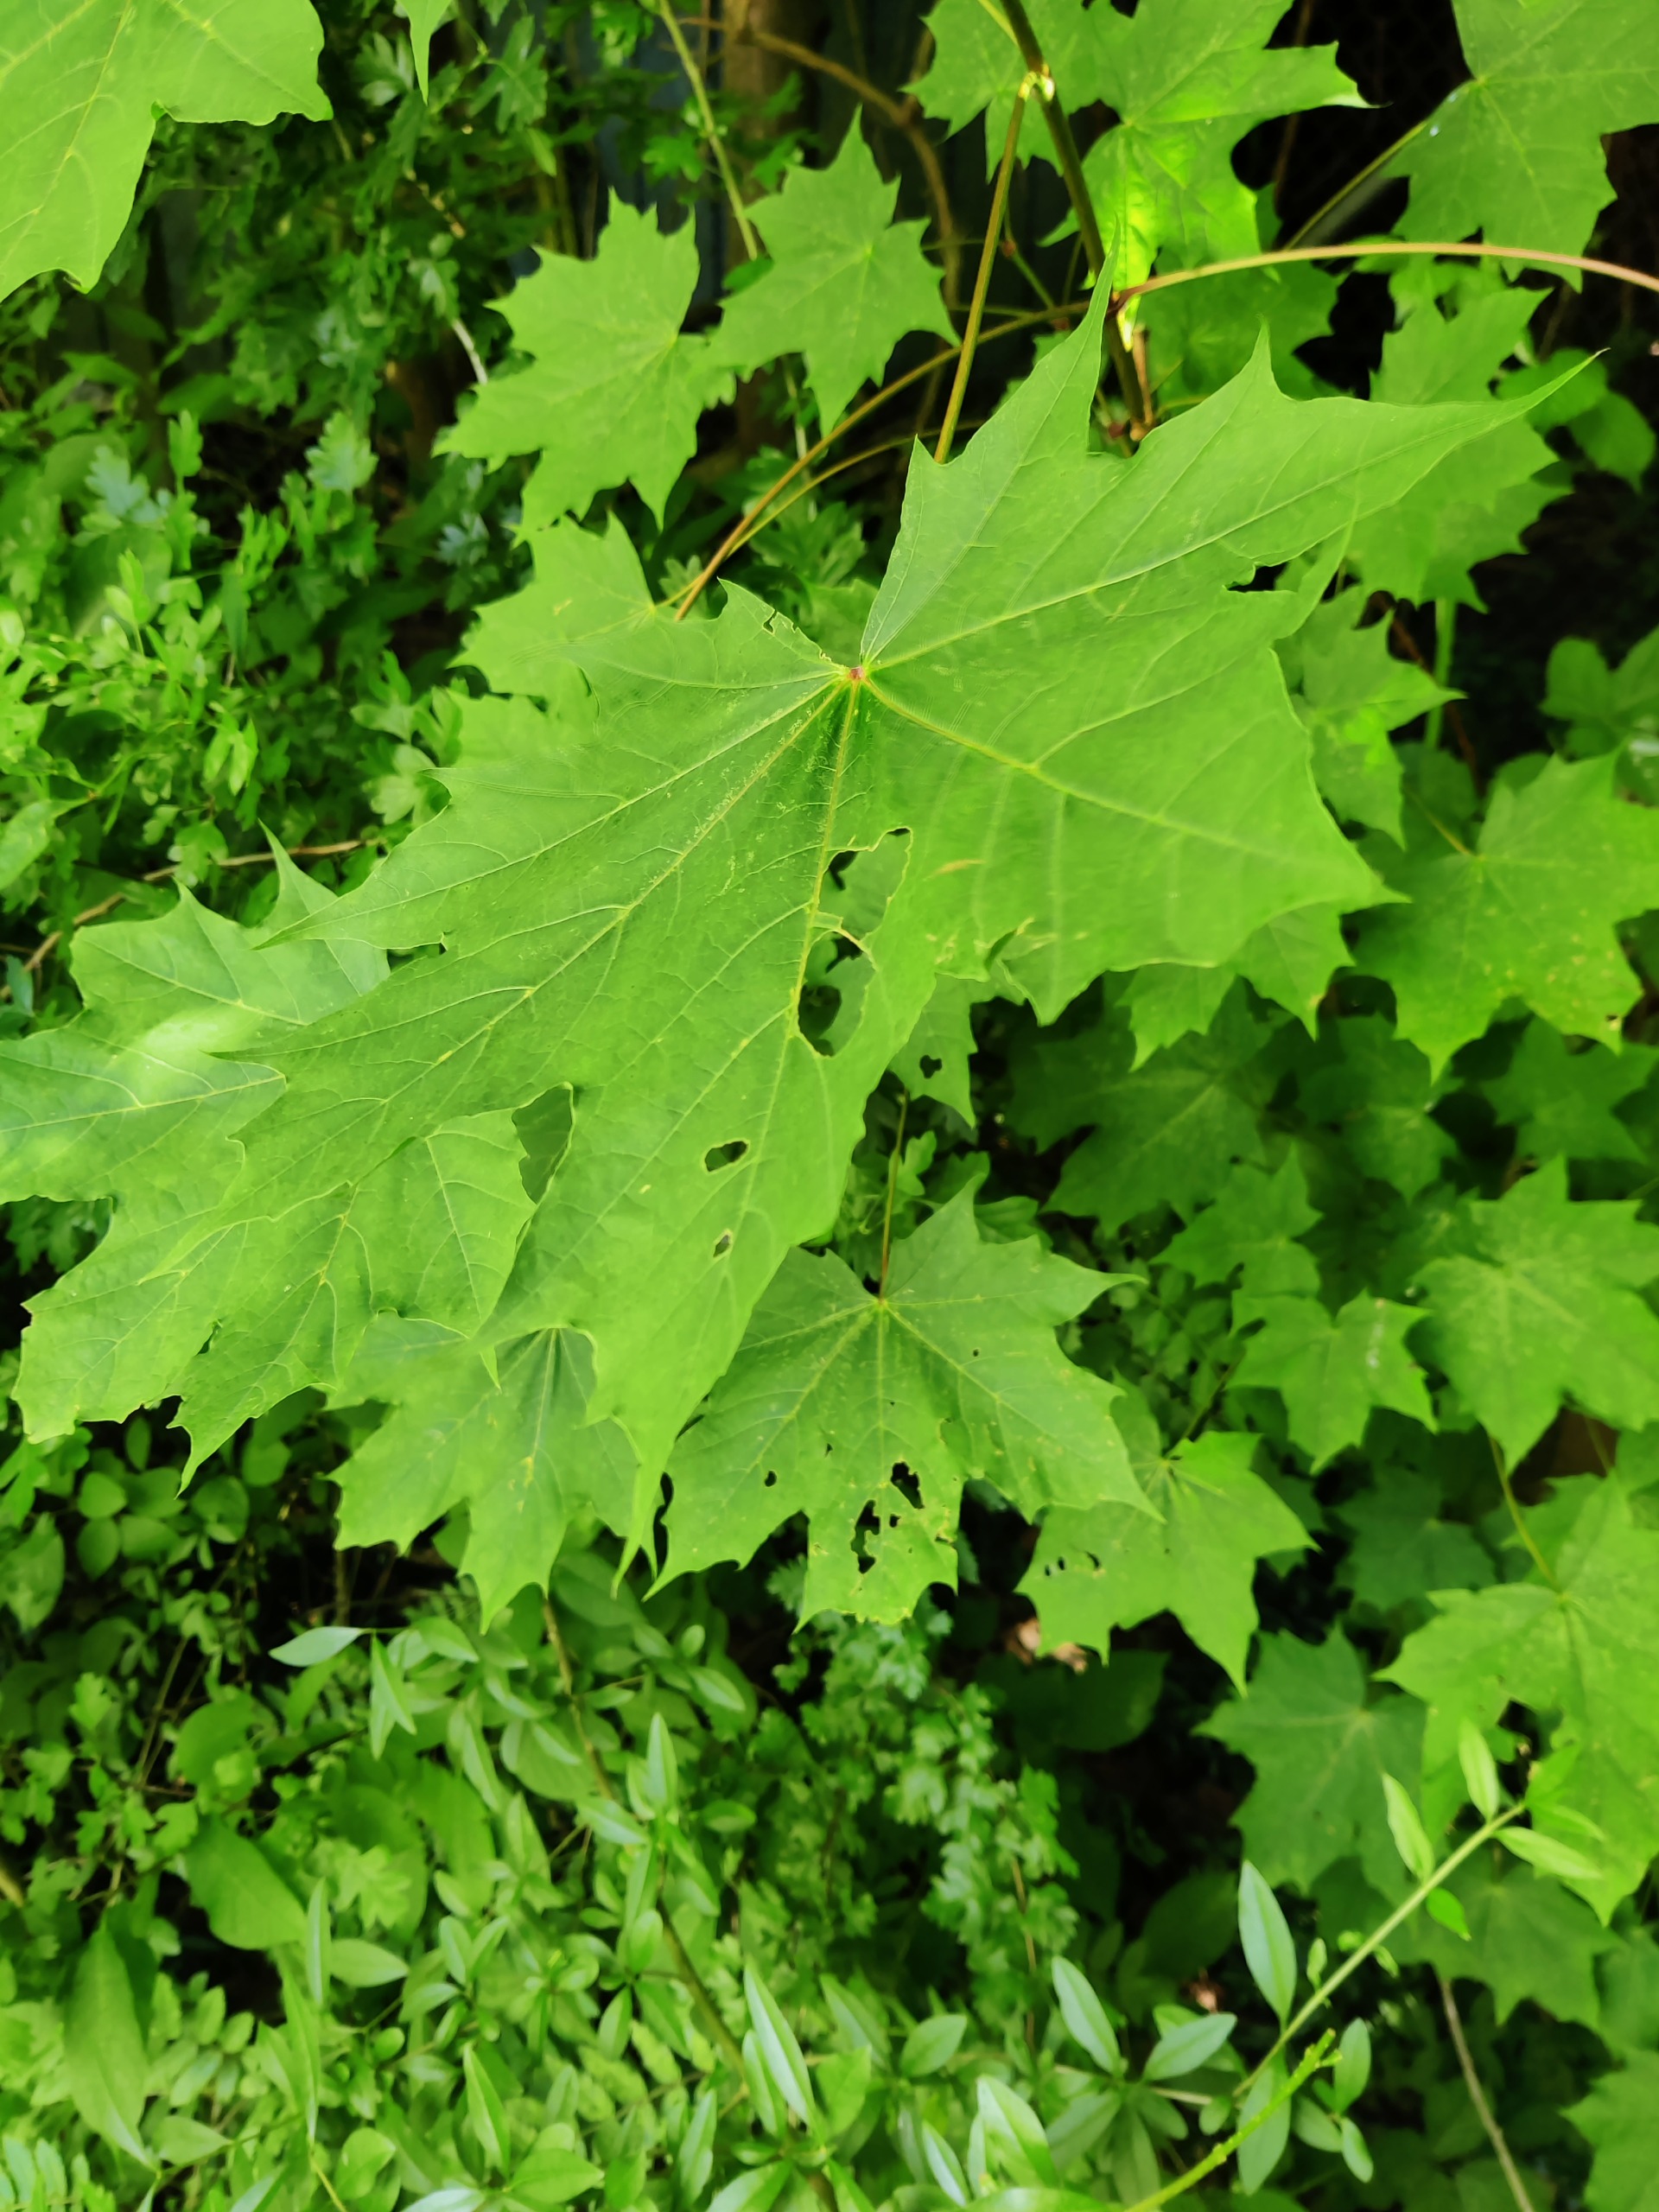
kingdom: Plantae
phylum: Tracheophyta
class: Magnoliopsida
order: Sapindales
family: Sapindaceae
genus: Acer
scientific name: Acer platanoides
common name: Spids-løn
